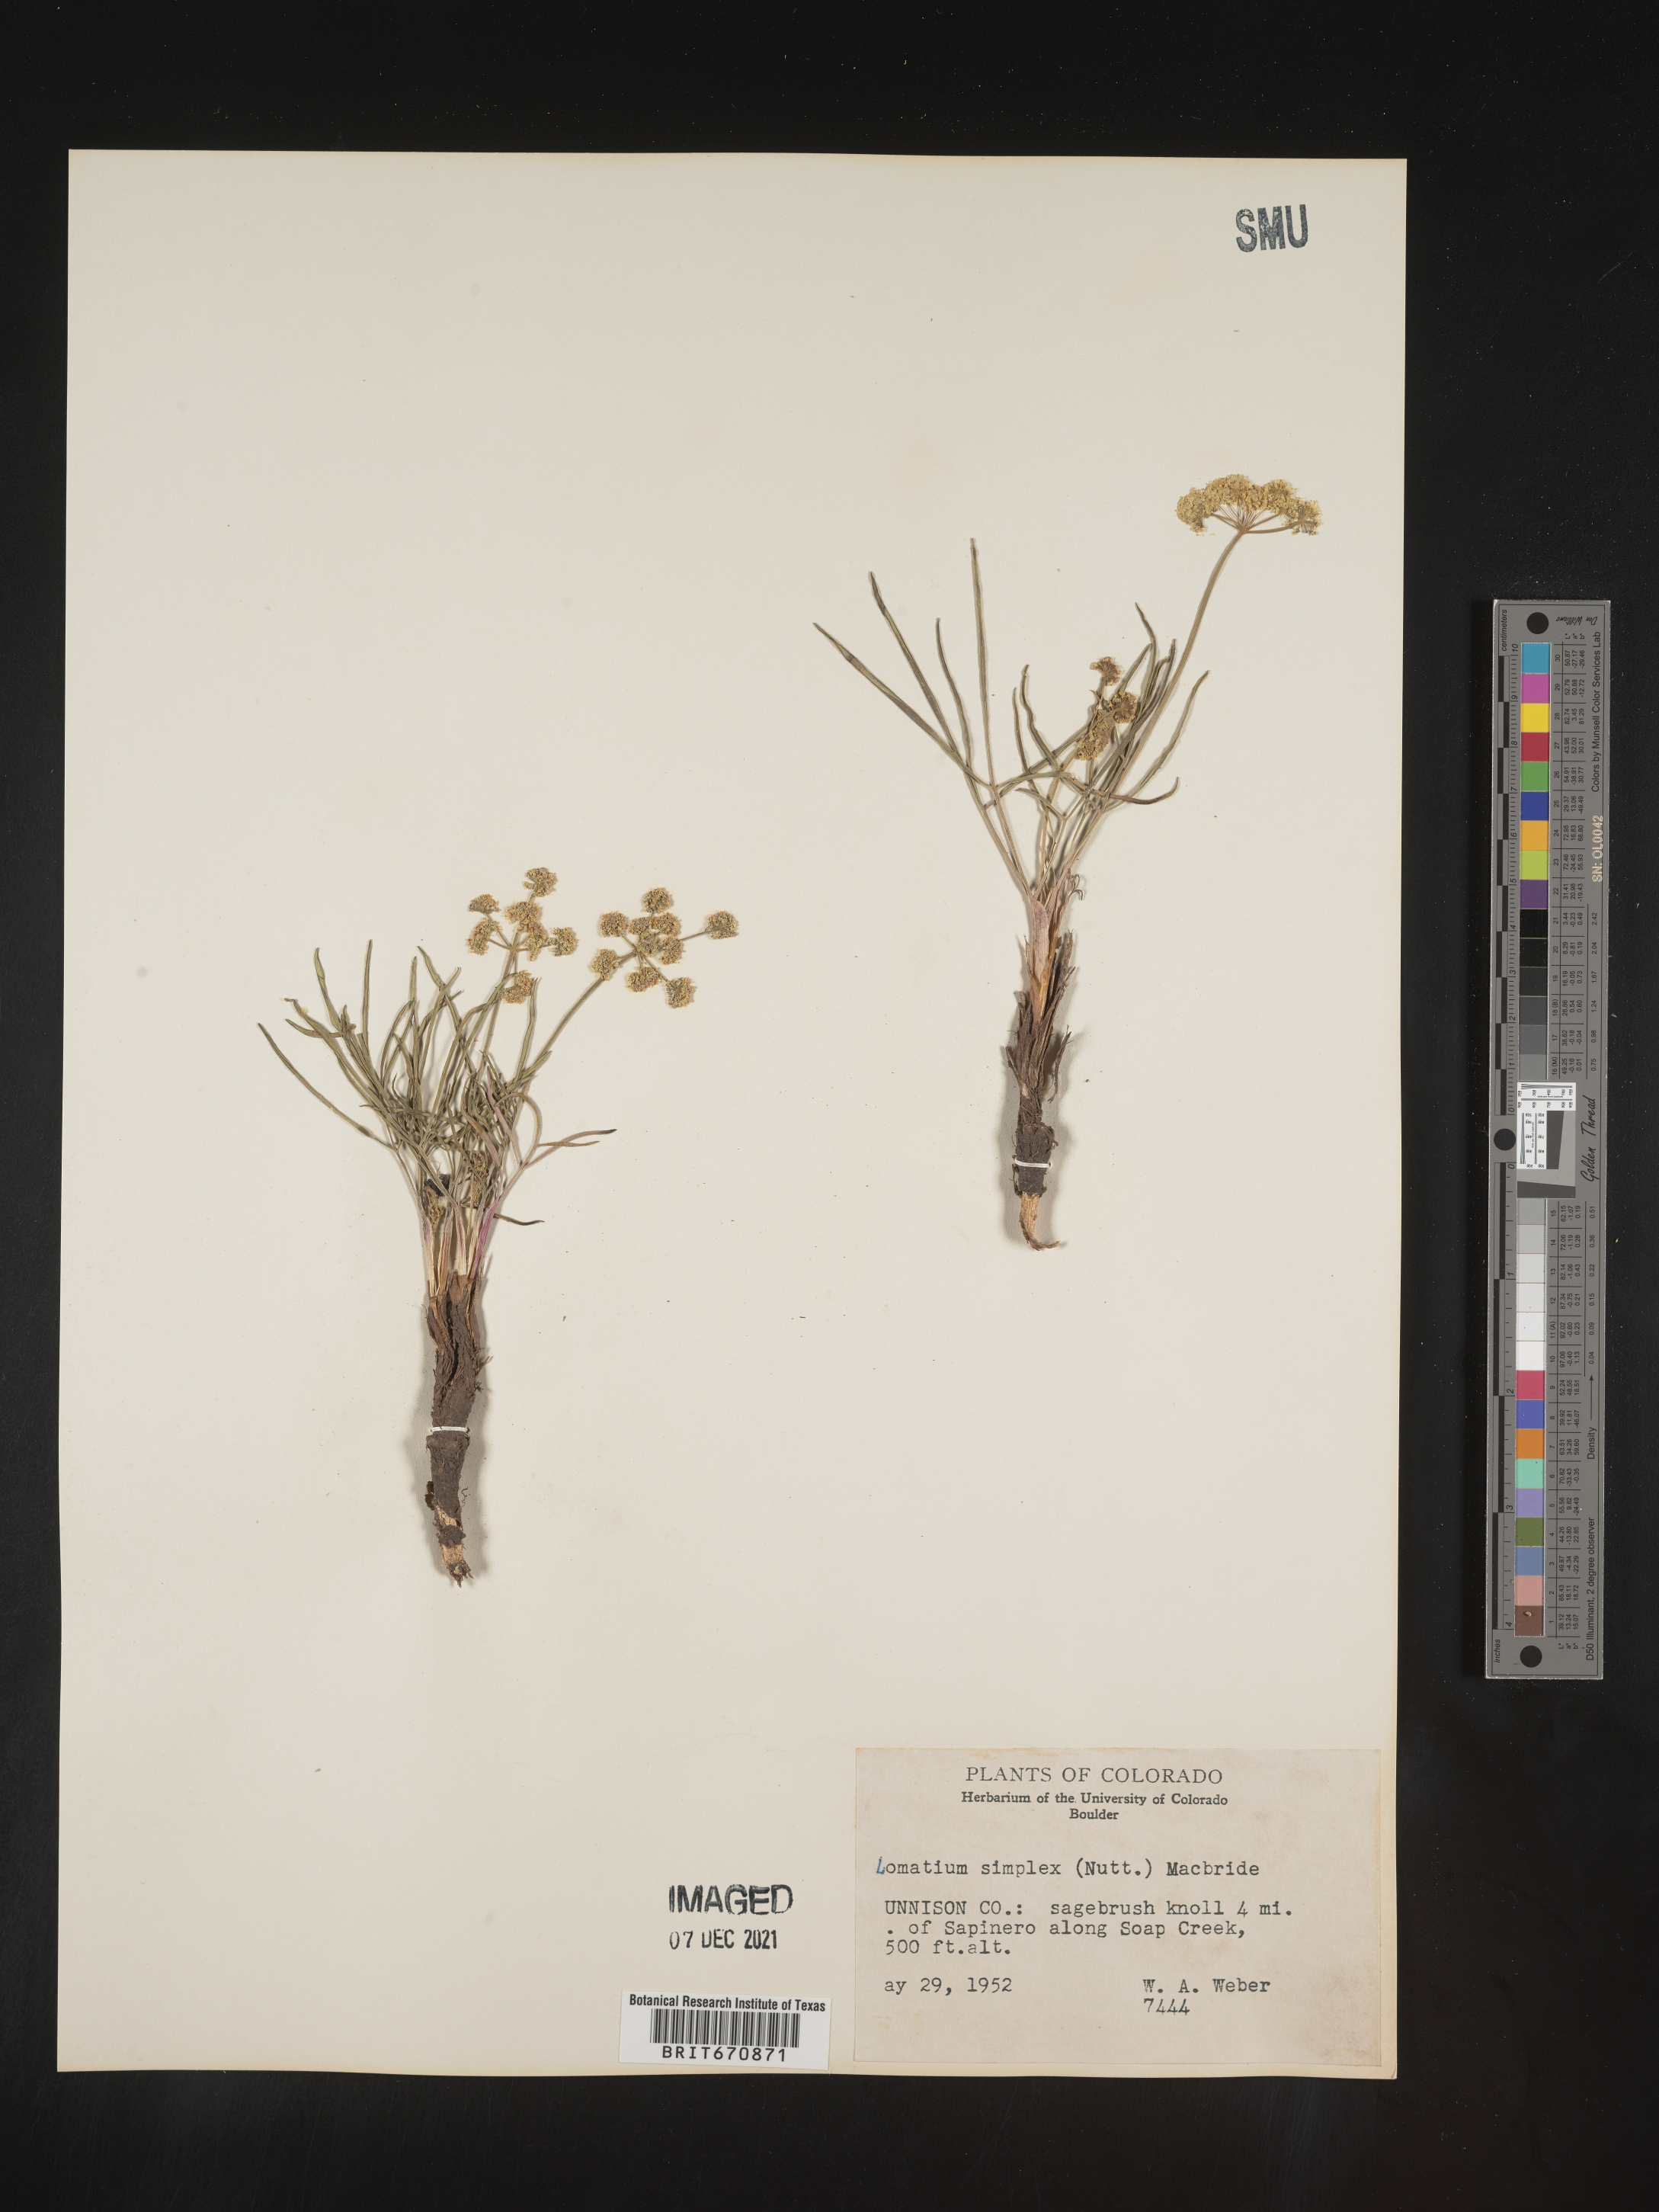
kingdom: Plantae
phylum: Tracheophyta
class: Magnoliopsida
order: Apiales
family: Apiaceae
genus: Lomatium
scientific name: Lomatium simplex
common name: Great basin biscuitroot
